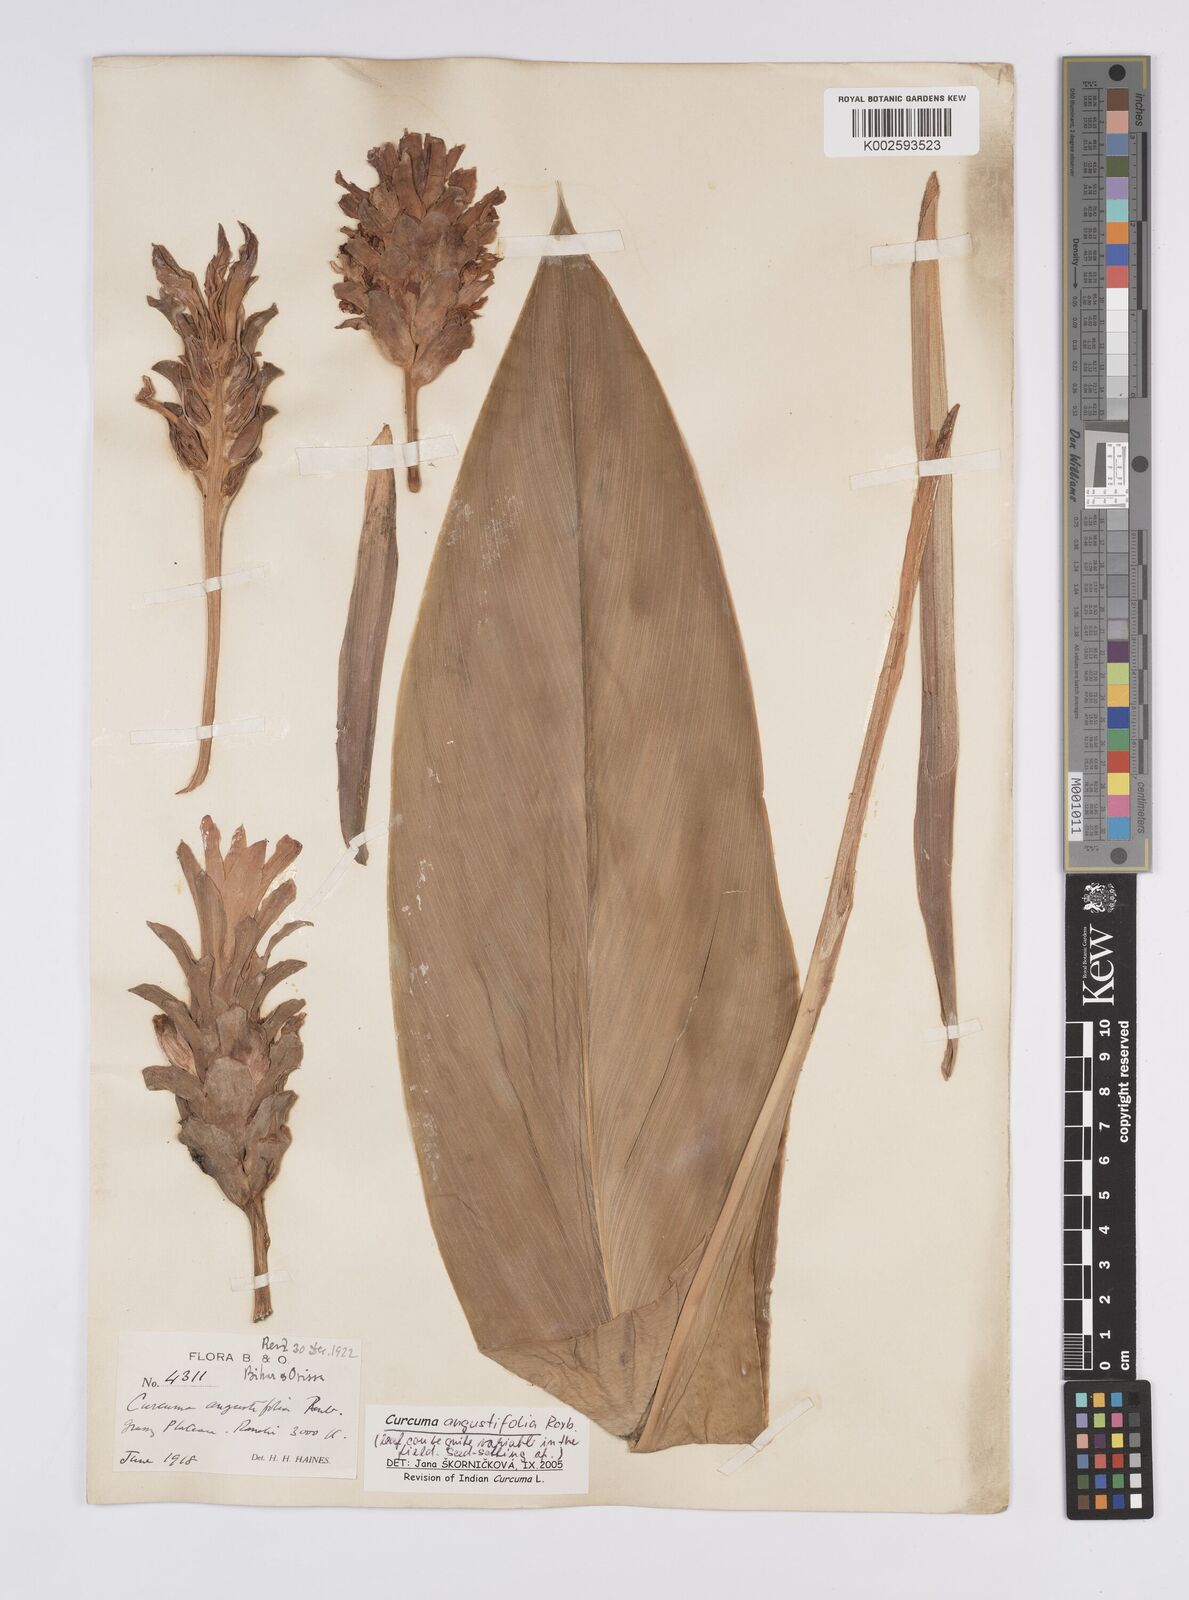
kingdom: Plantae
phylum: Tracheophyta
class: Liliopsida
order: Zingiberales
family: Zingiberaceae
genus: Curcuma
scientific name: Curcuma angustifolia
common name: East indian arrowroot
